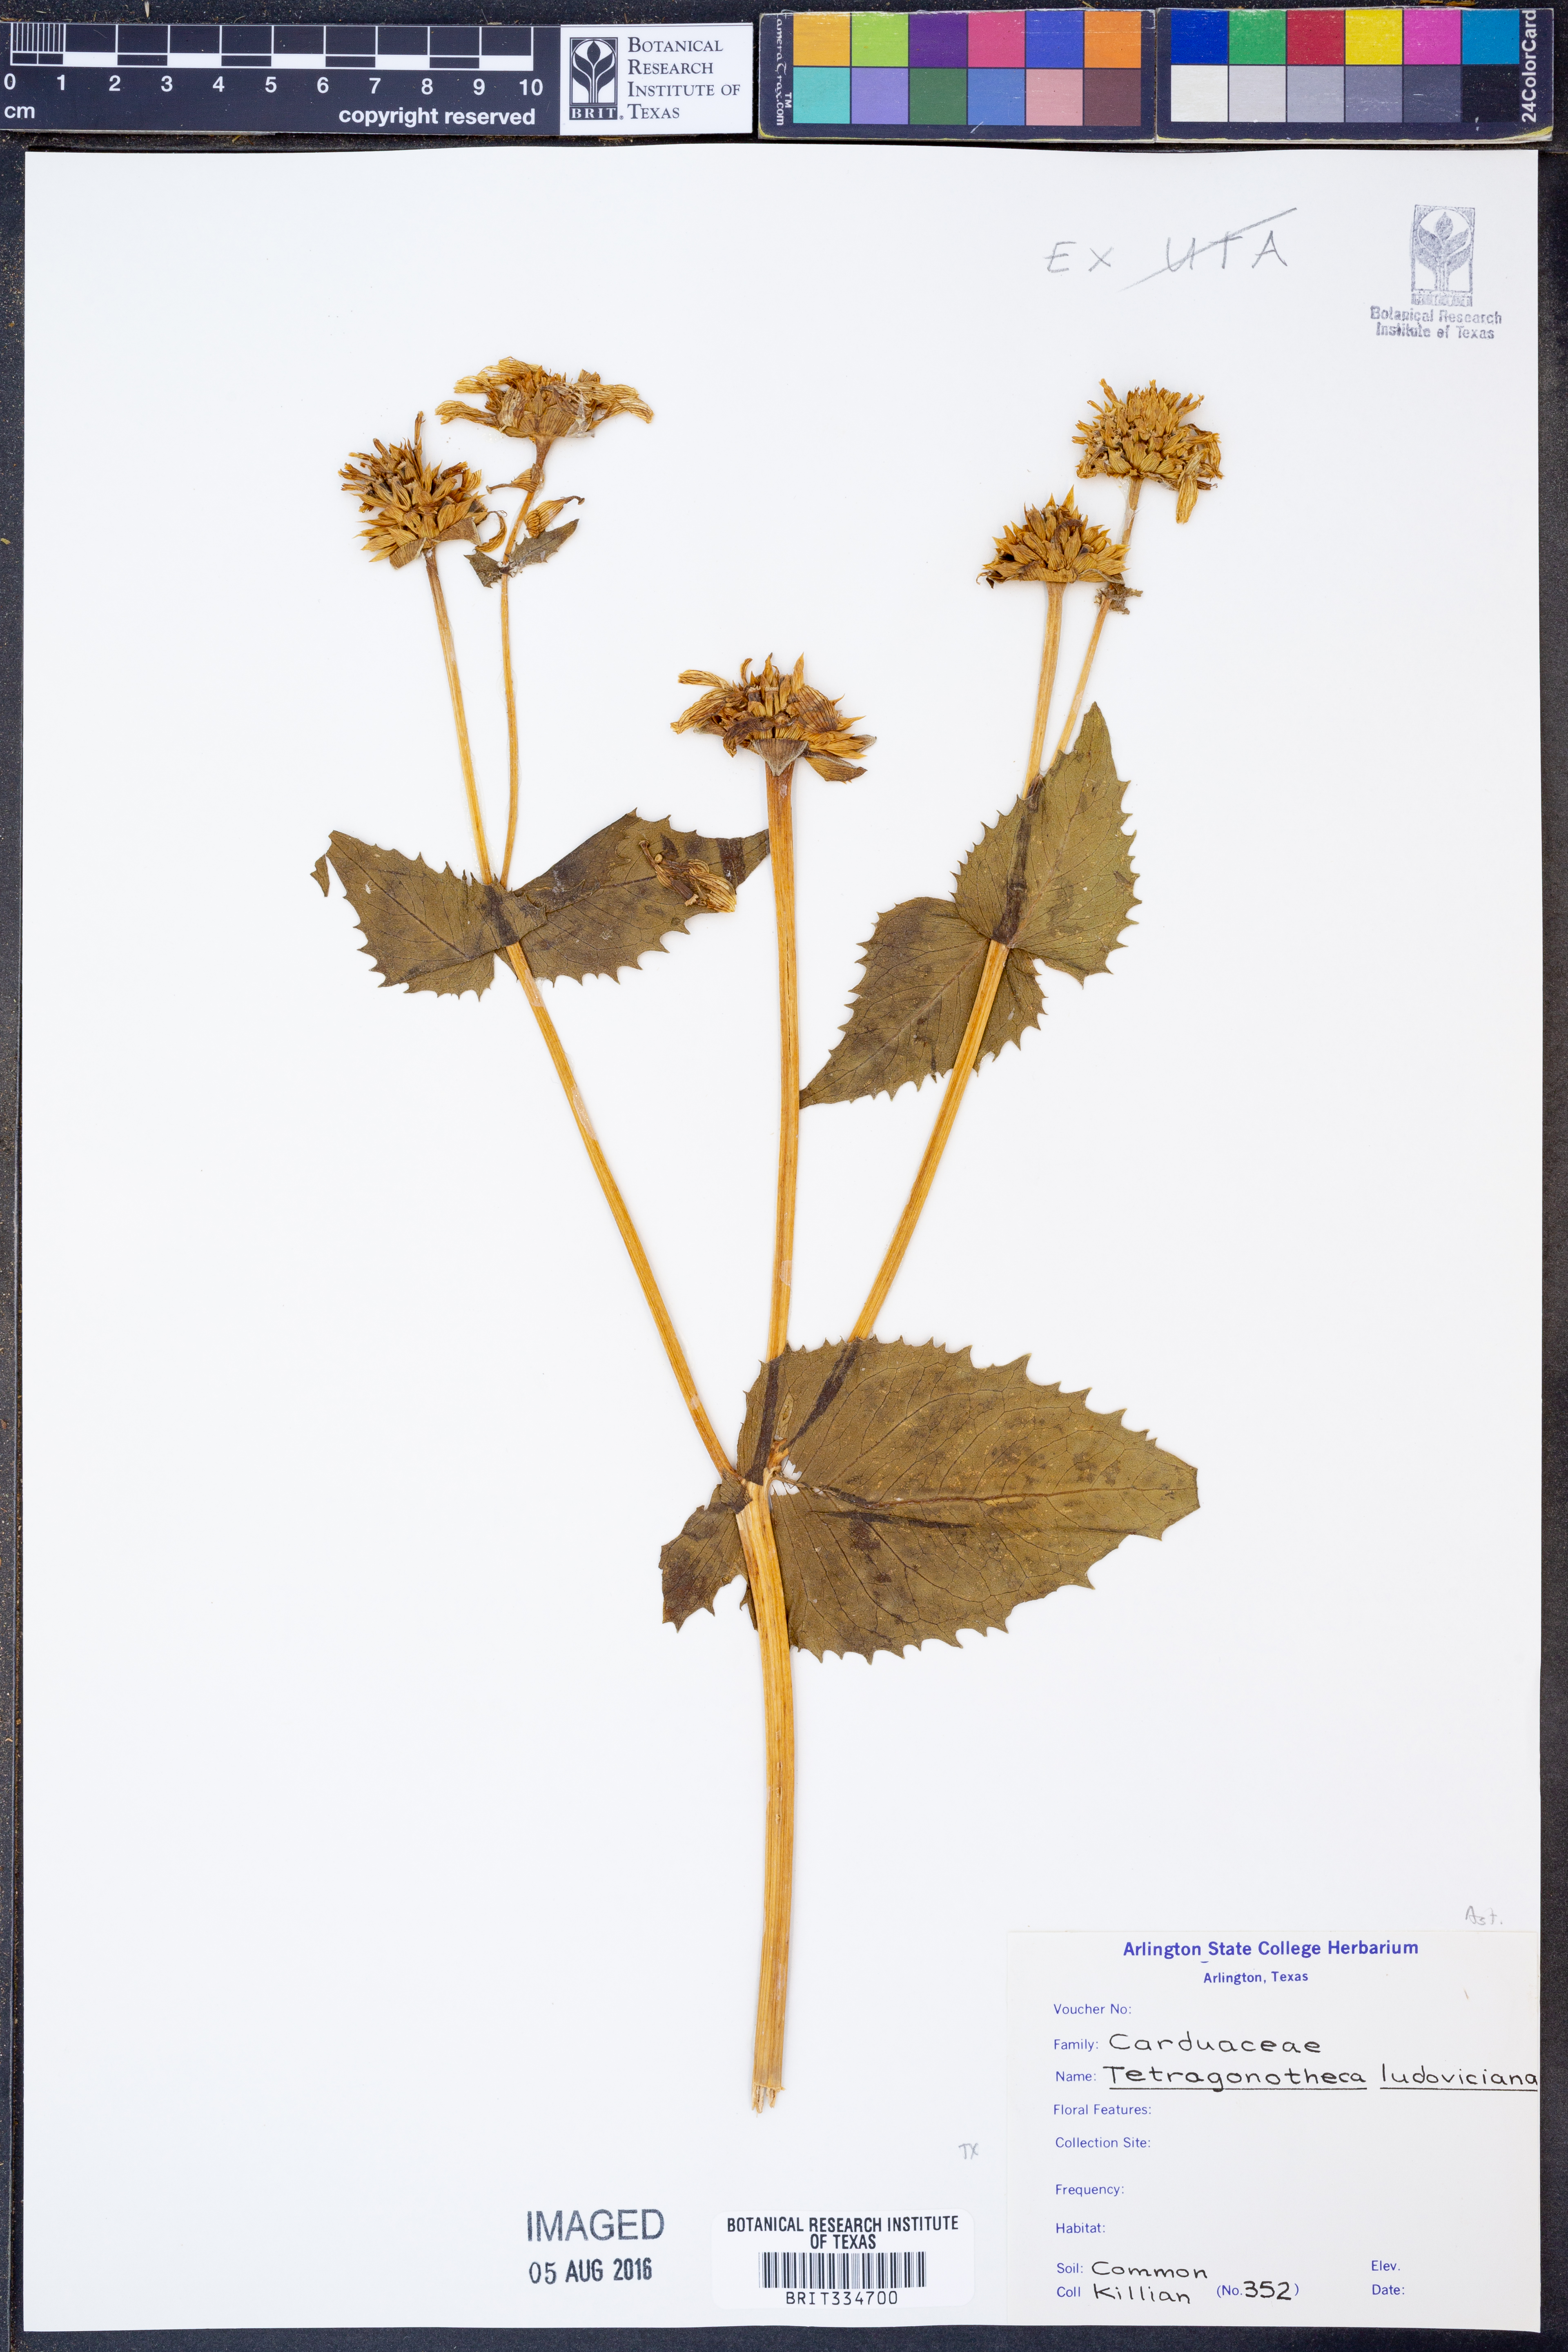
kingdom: Plantae
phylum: Tracheophyta
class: Magnoliopsida
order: Asterales
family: Asteraceae
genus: Tetragonotheca
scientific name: Tetragonotheca ludoviciana
